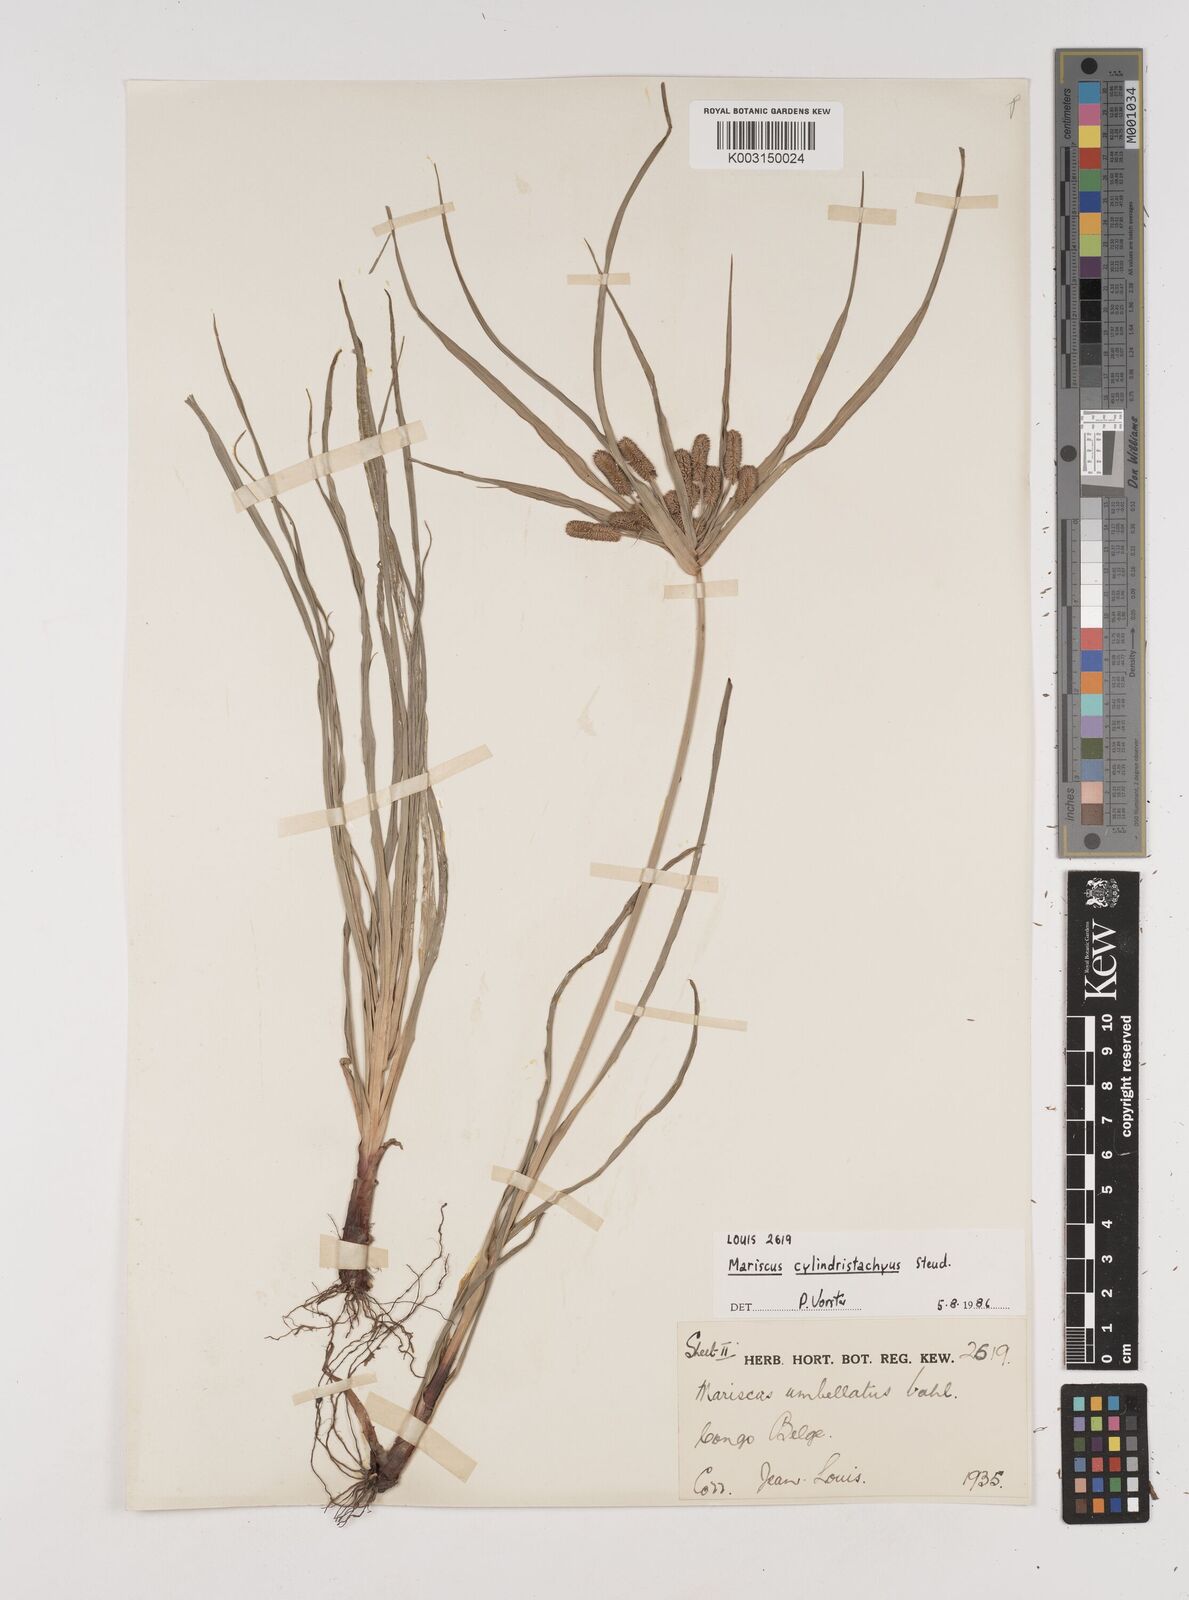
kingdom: Plantae
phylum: Tracheophyta
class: Liliopsida
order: Poales
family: Cyperaceae
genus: Cyperus
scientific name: Cyperus cyperoides
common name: Pacific island flat sedge
